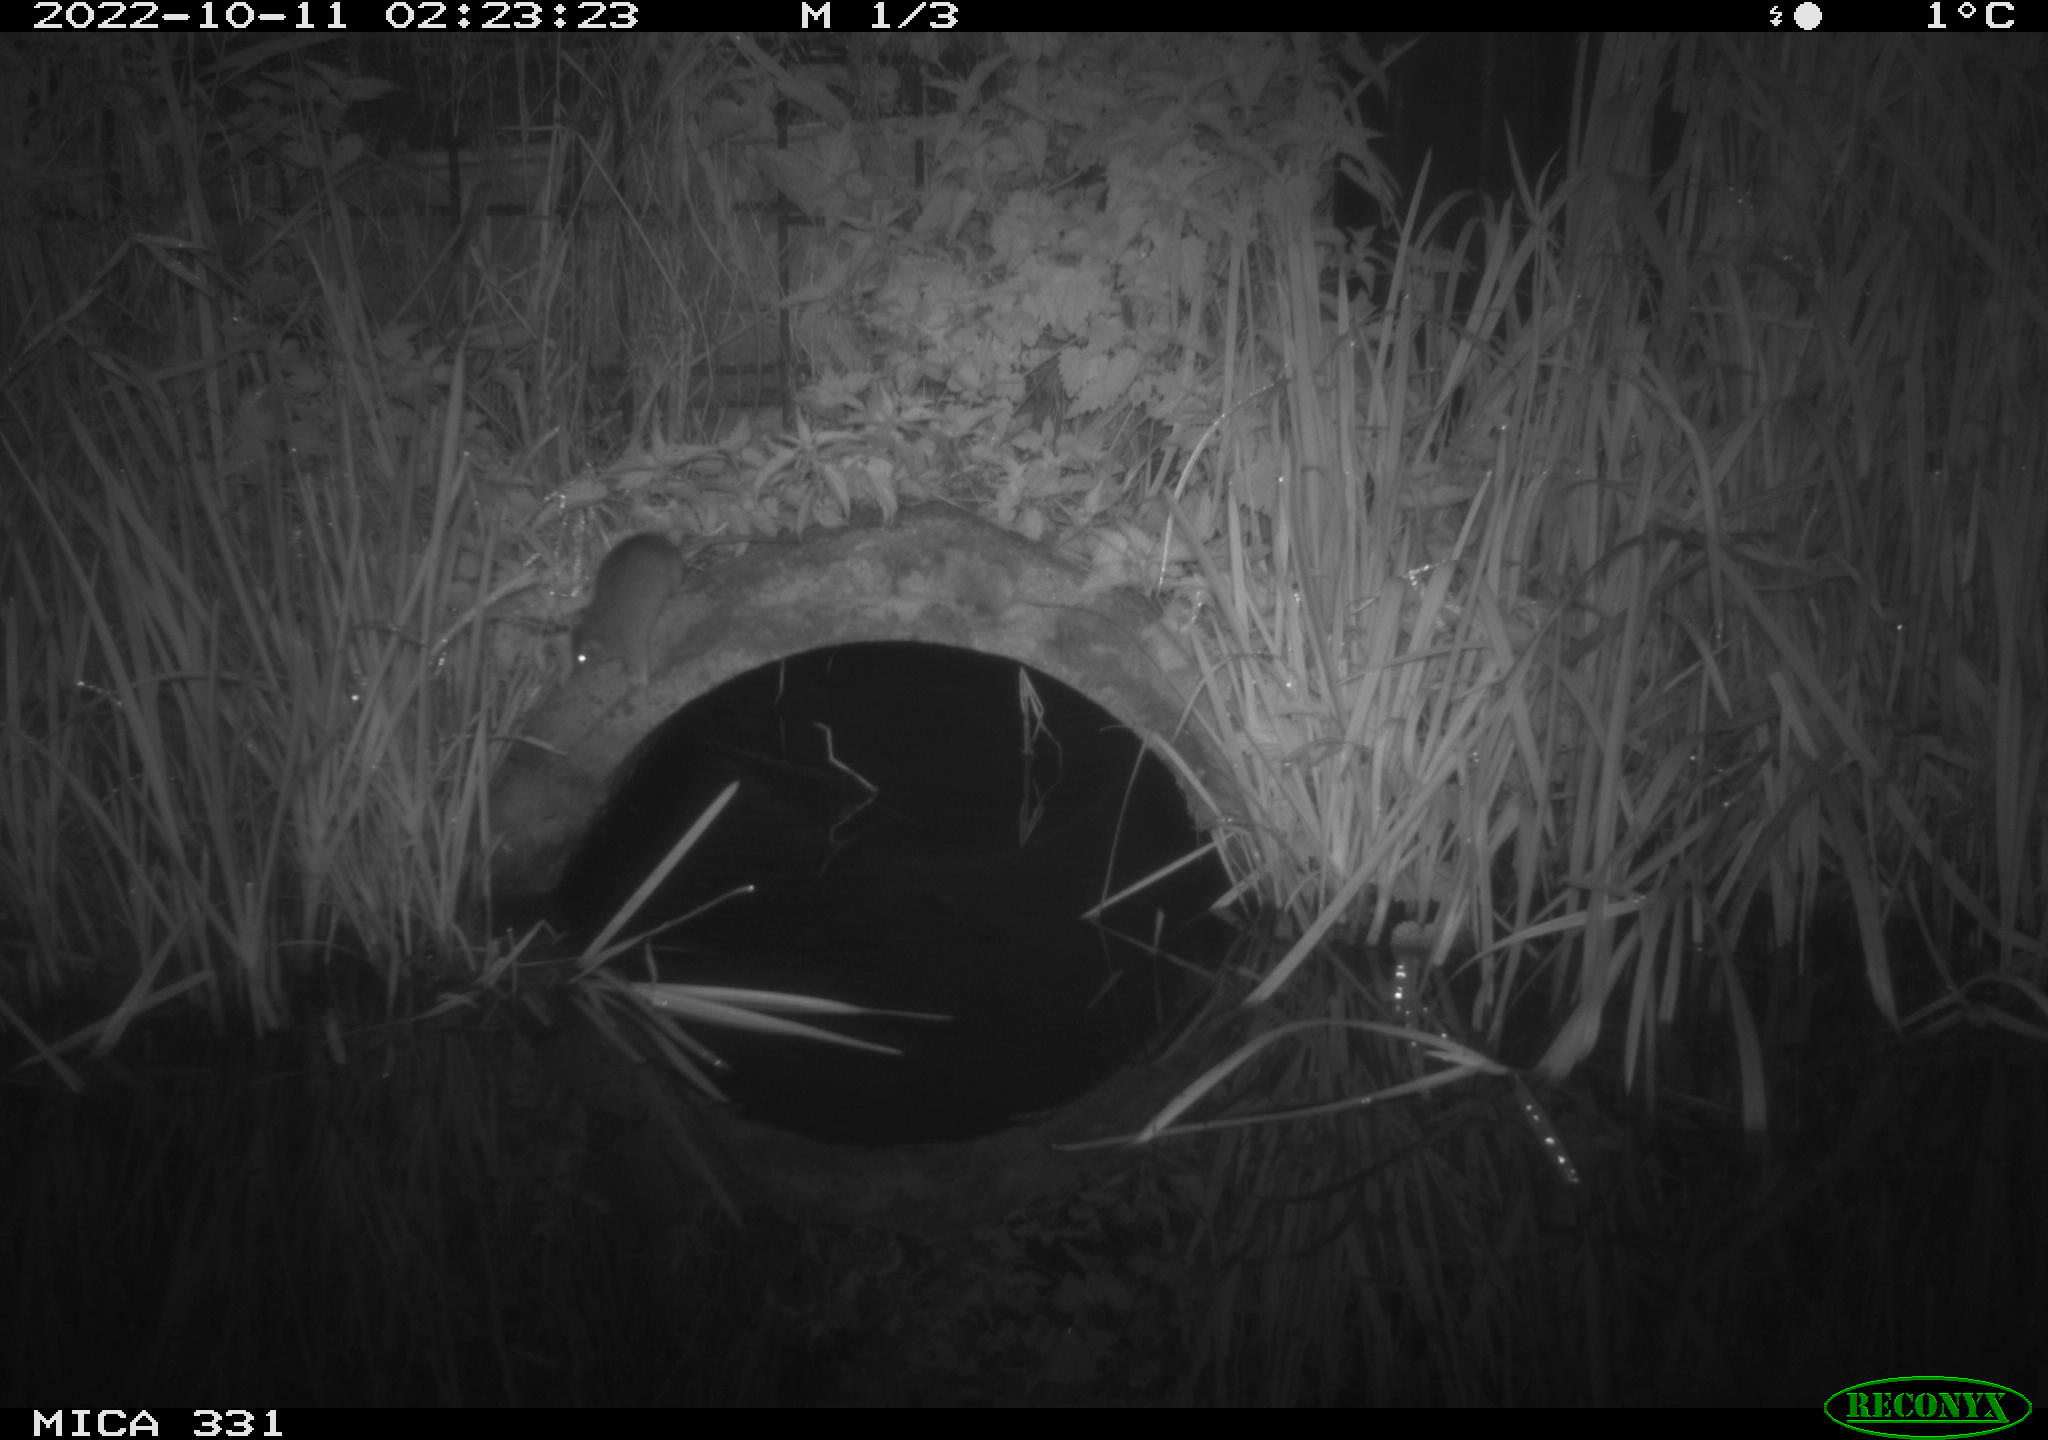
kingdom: Animalia
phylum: Chordata
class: Mammalia
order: Rodentia
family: Muridae
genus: Rattus
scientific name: Rattus norvegicus
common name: Brown rat
